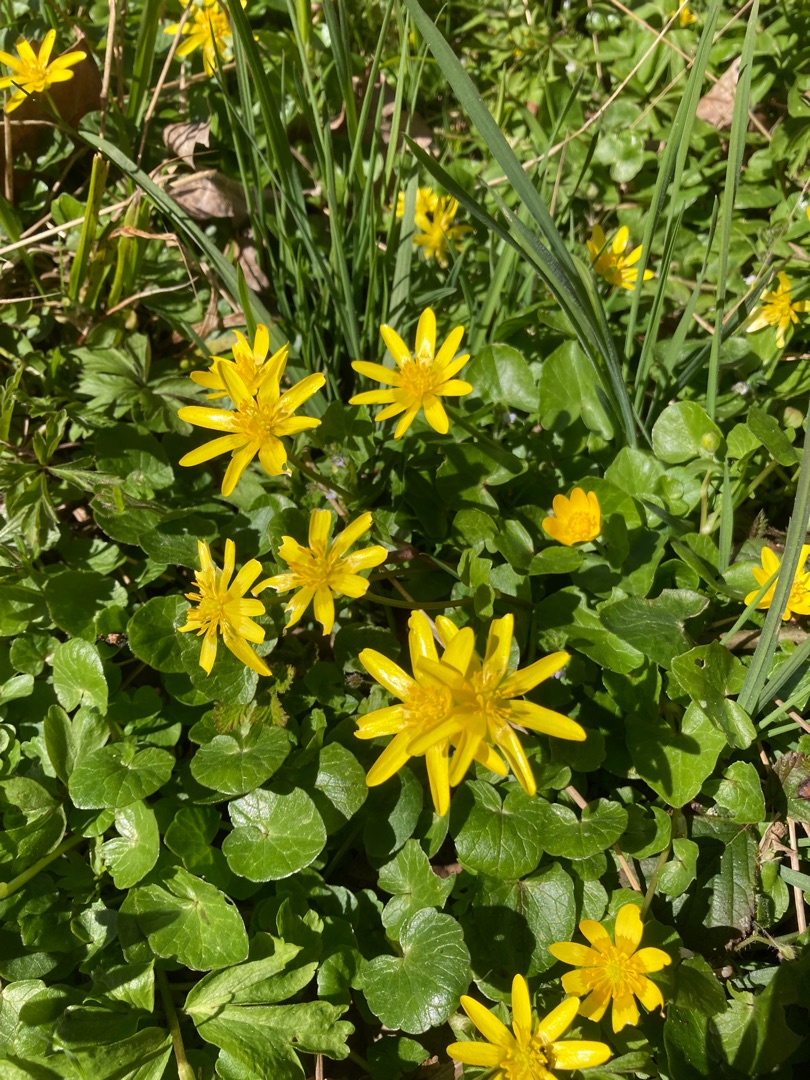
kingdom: Plantae
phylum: Tracheophyta
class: Magnoliopsida
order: Ranunculales
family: Ranunculaceae
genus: Ficaria
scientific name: Ficaria verna
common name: Vorterod
